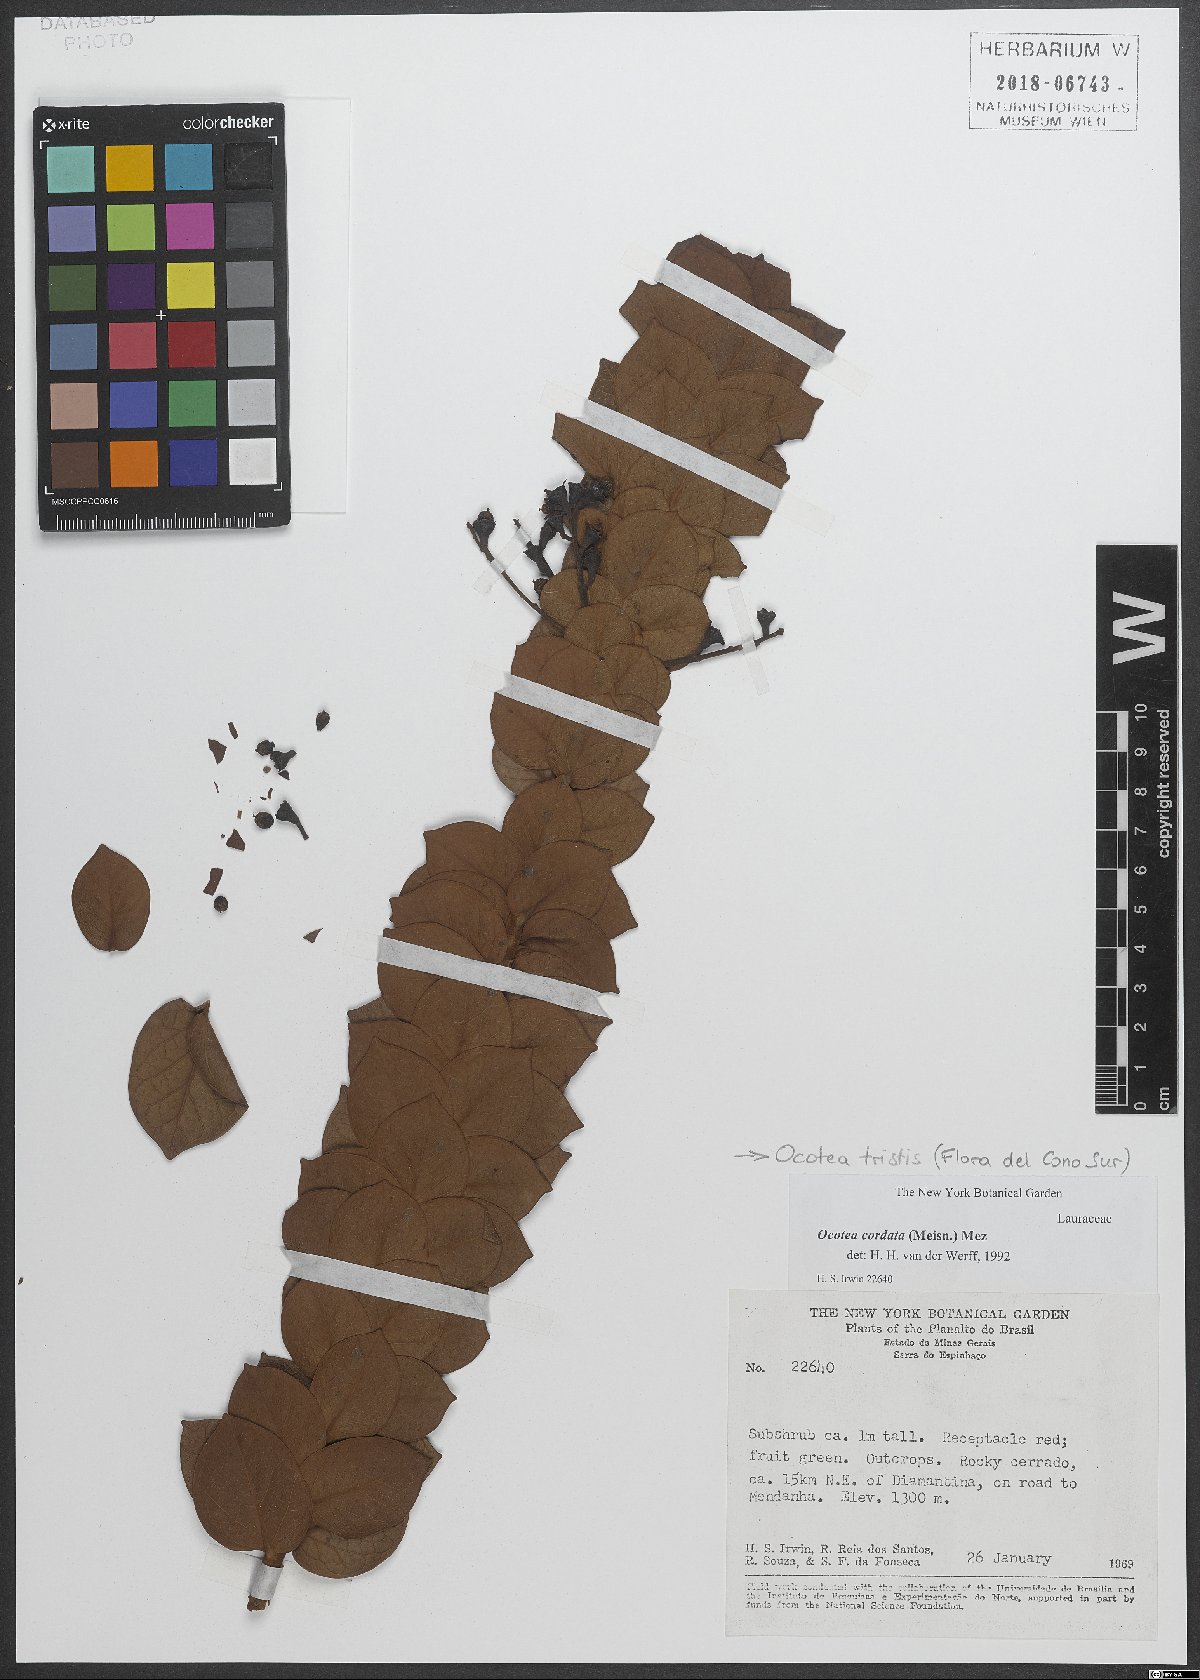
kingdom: Plantae
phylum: Tracheophyta
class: Magnoliopsida
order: Laurales
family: Lauraceae
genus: Mespilodaphne
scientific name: Mespilodaphne tristis
